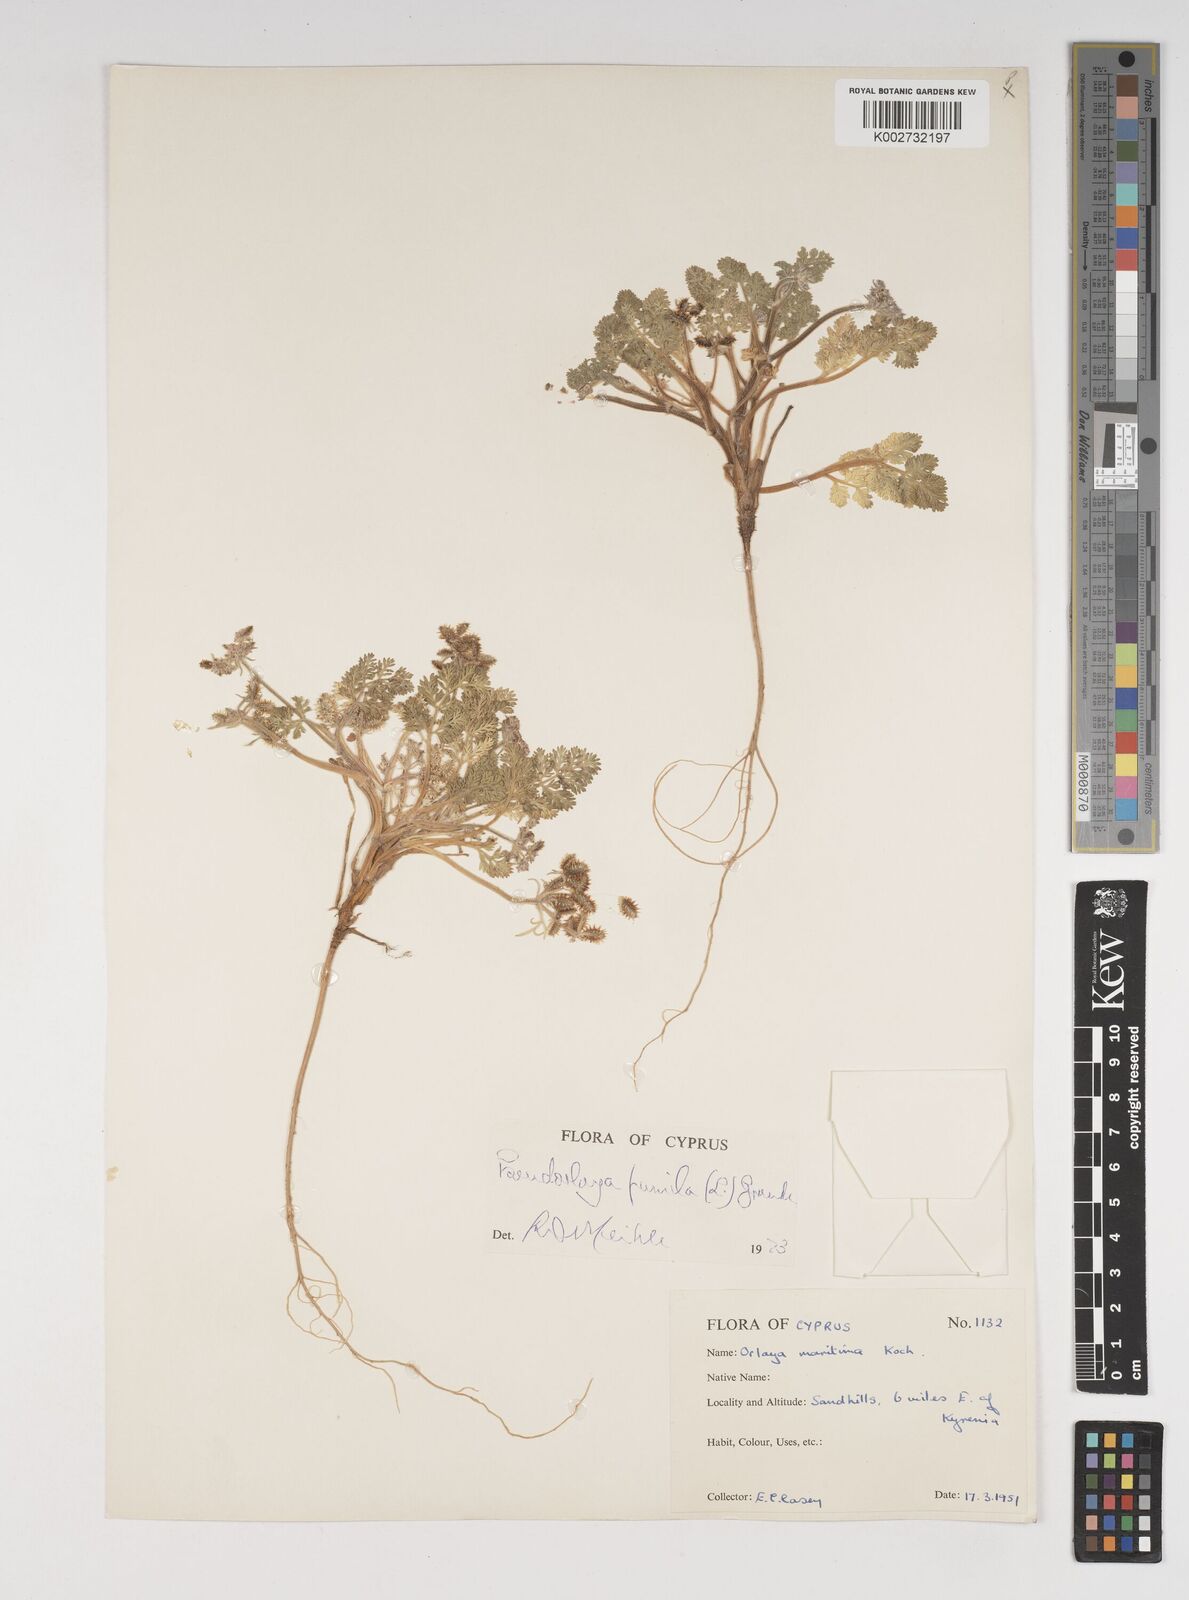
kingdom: Plantae
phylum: Tracheophyta
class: Magnoliopsida
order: Apiales
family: Apiaceae
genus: Daucus
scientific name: Daucus pumilus
